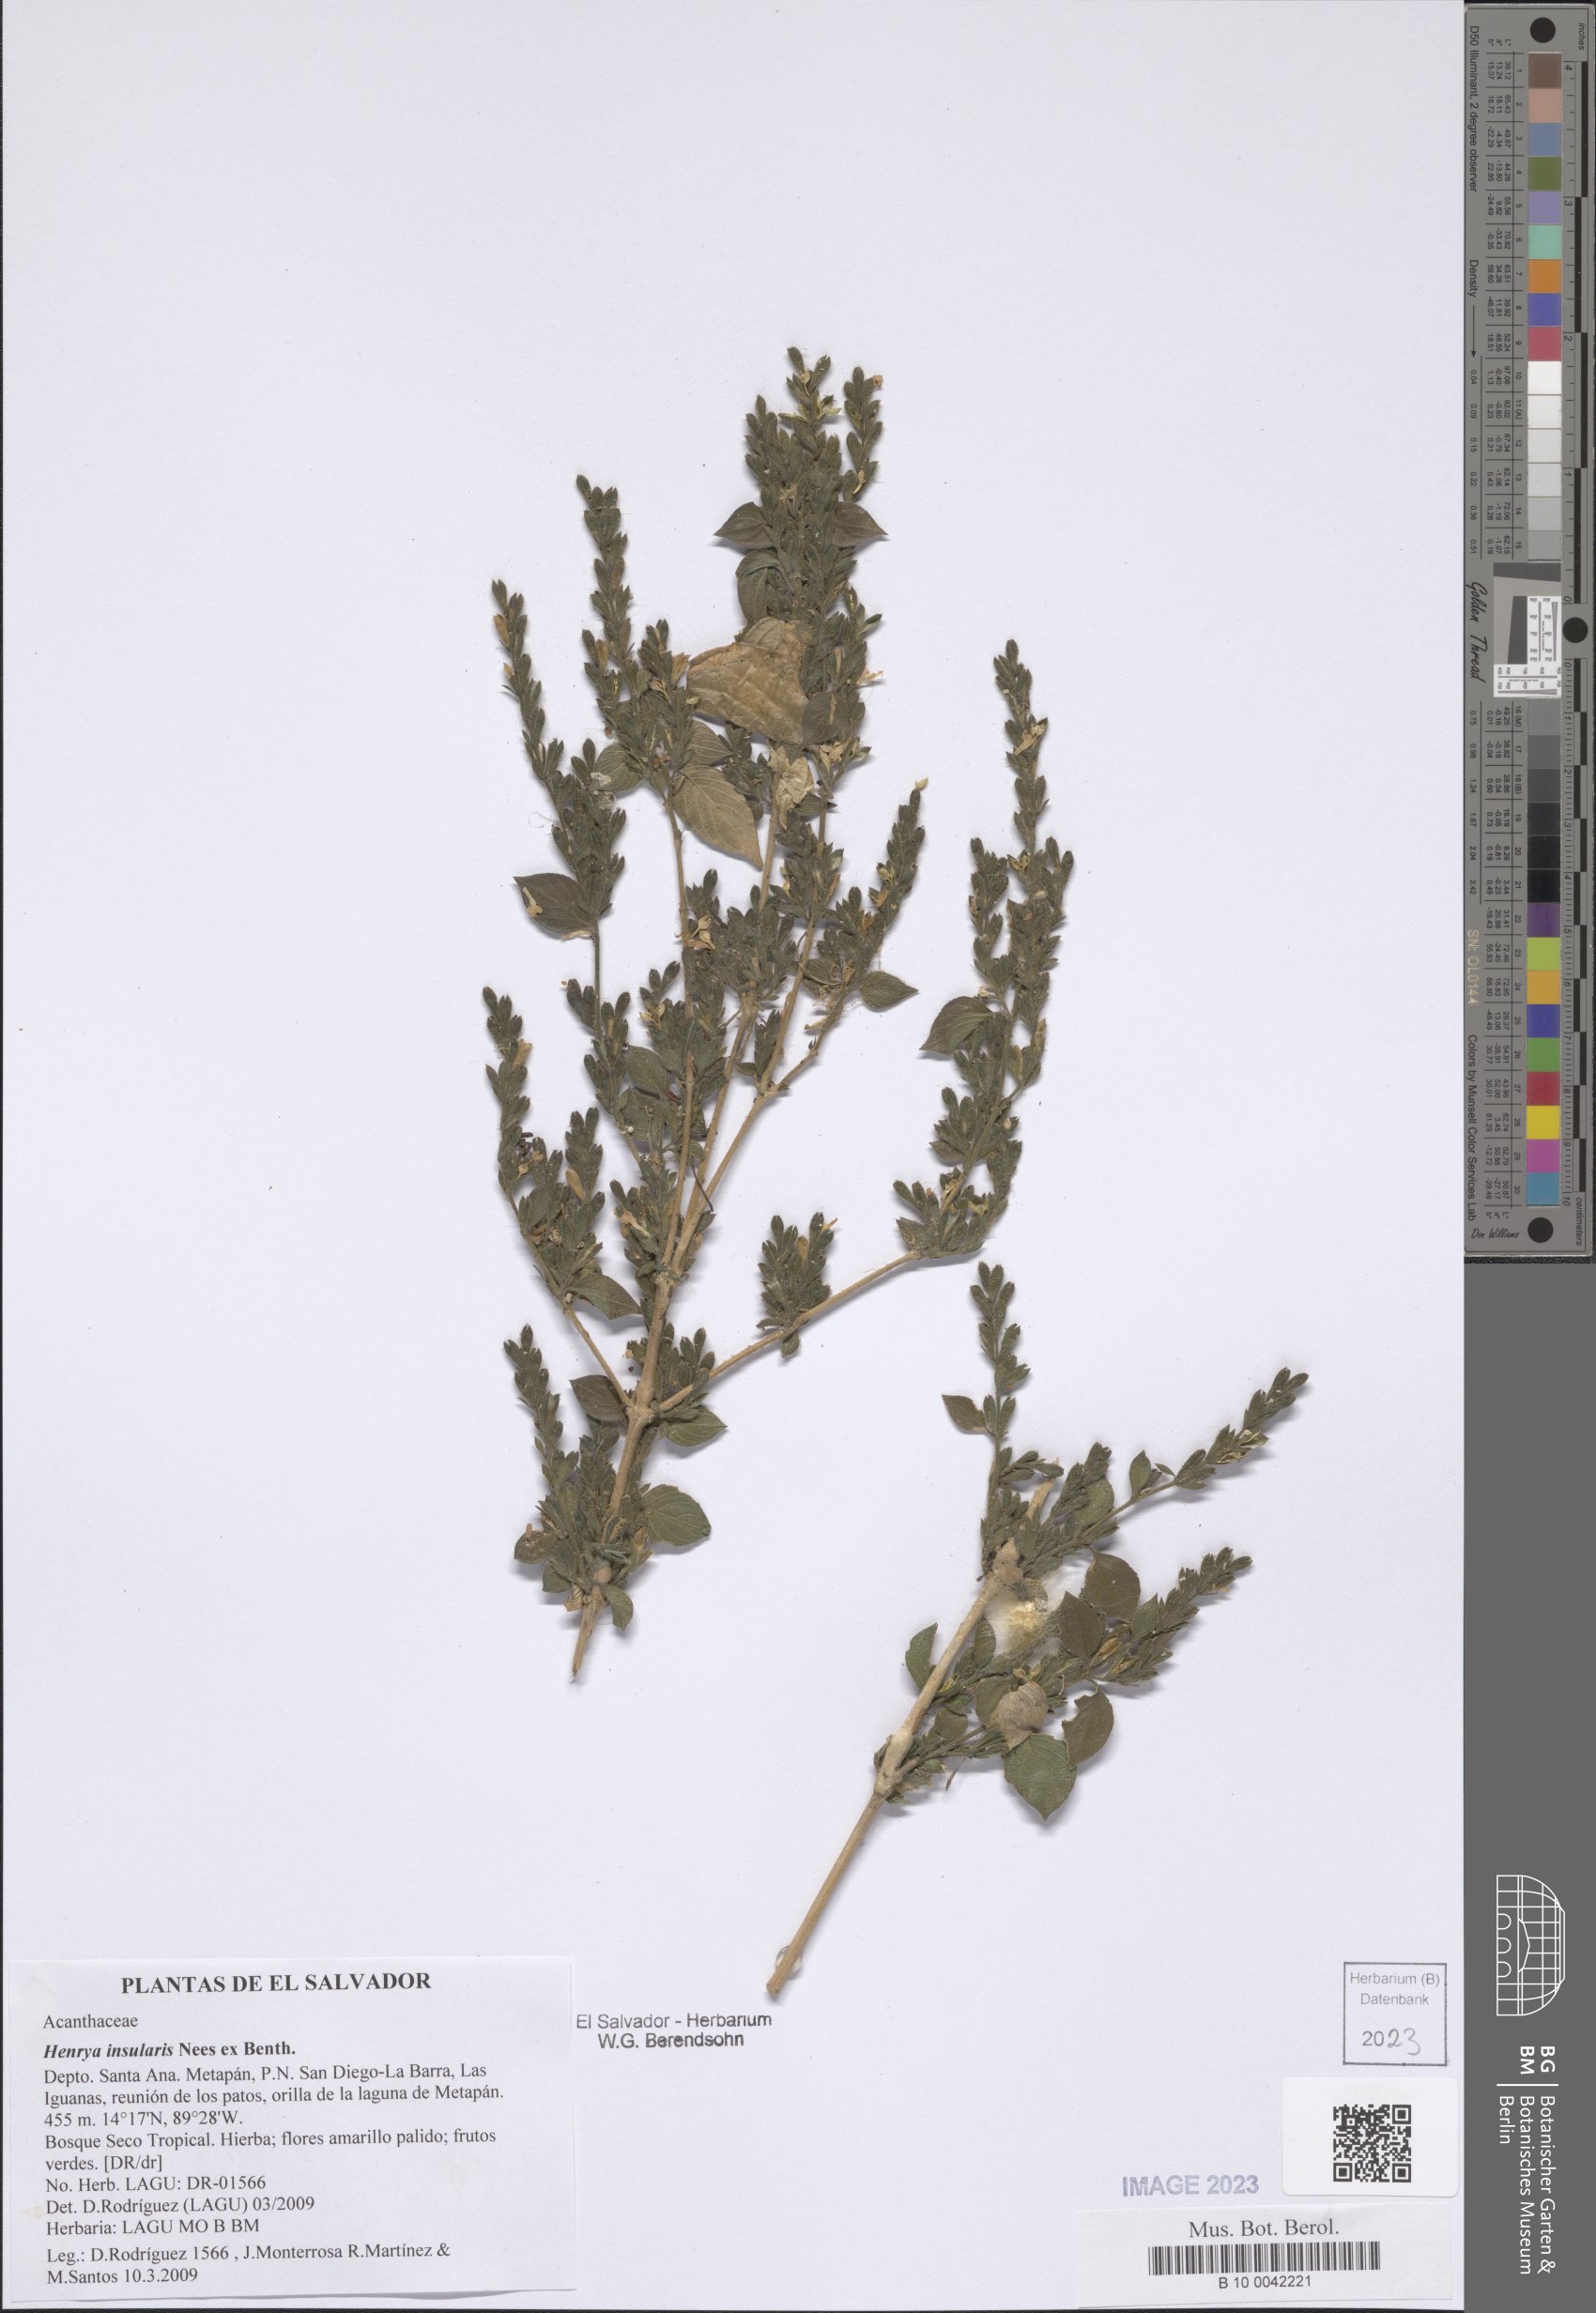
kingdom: Plantae
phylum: Tracheophyta
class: Magnoliopsida
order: Lamiales
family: Acanthaceae
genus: Henrya
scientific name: Henrya insularis
